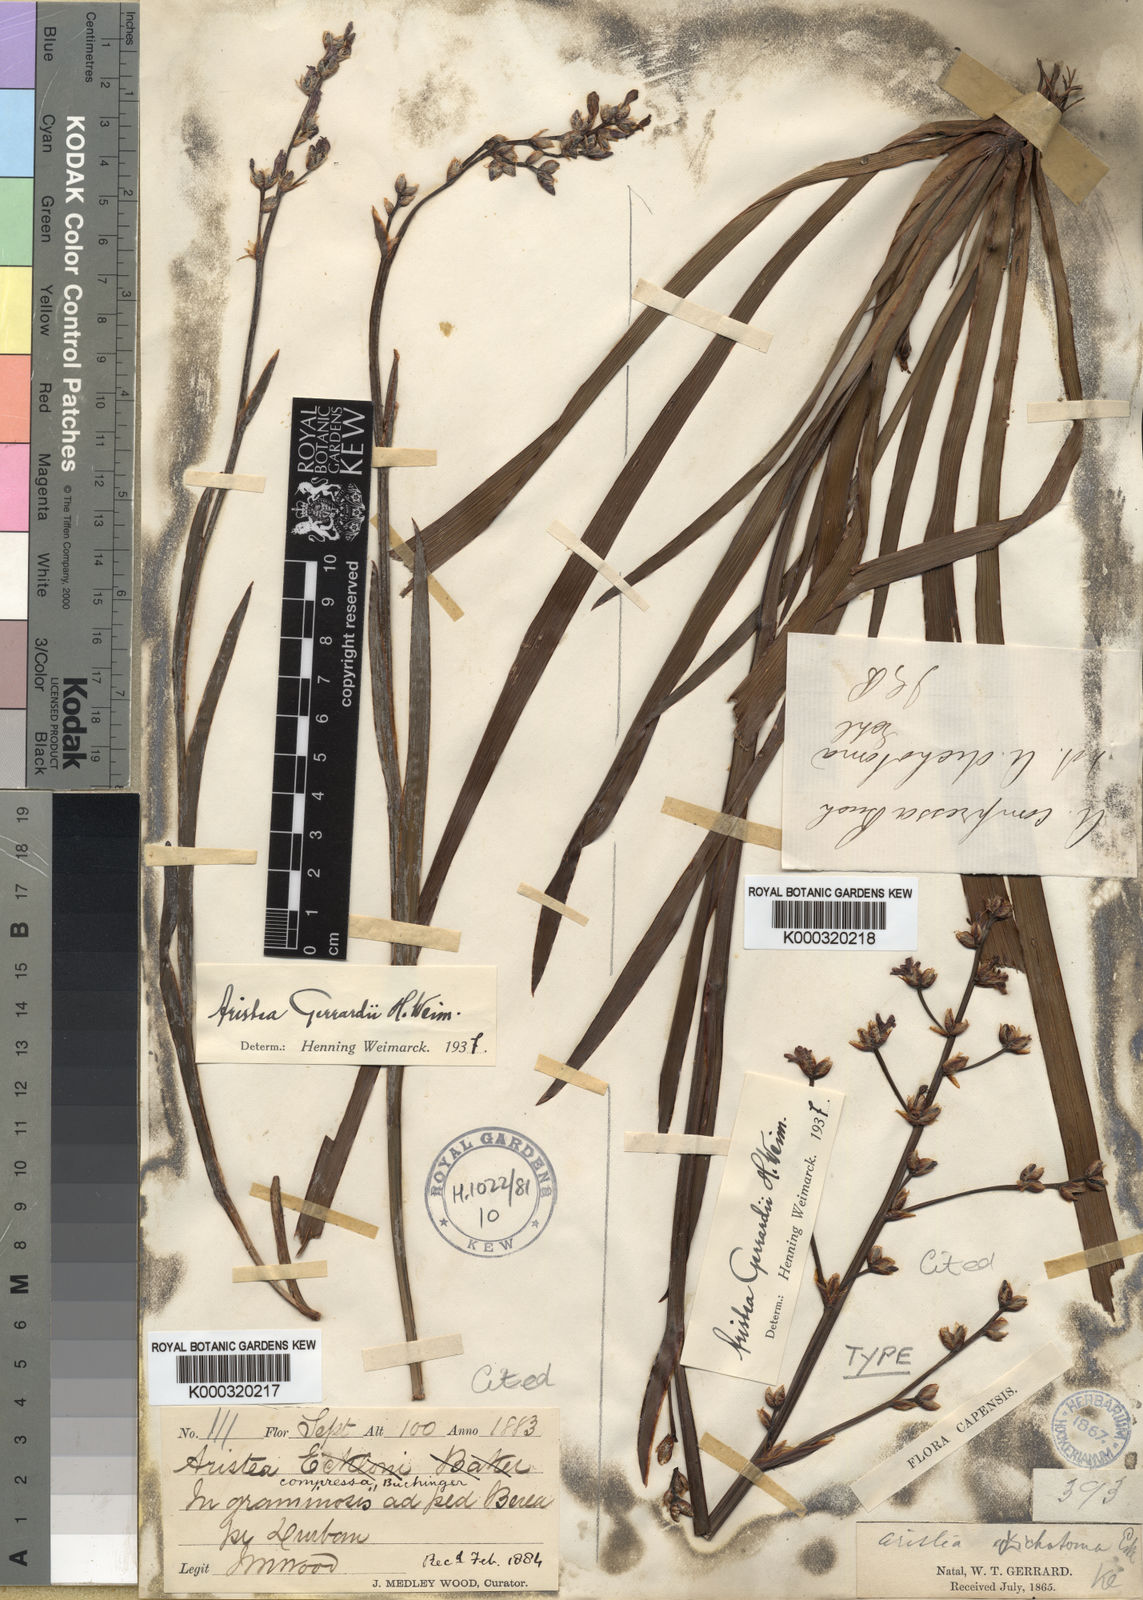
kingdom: Plantae
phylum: Tracheophyta
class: Liliopsida
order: Asparagales
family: Iridaceae
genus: Aristea
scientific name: Aristea compressa
